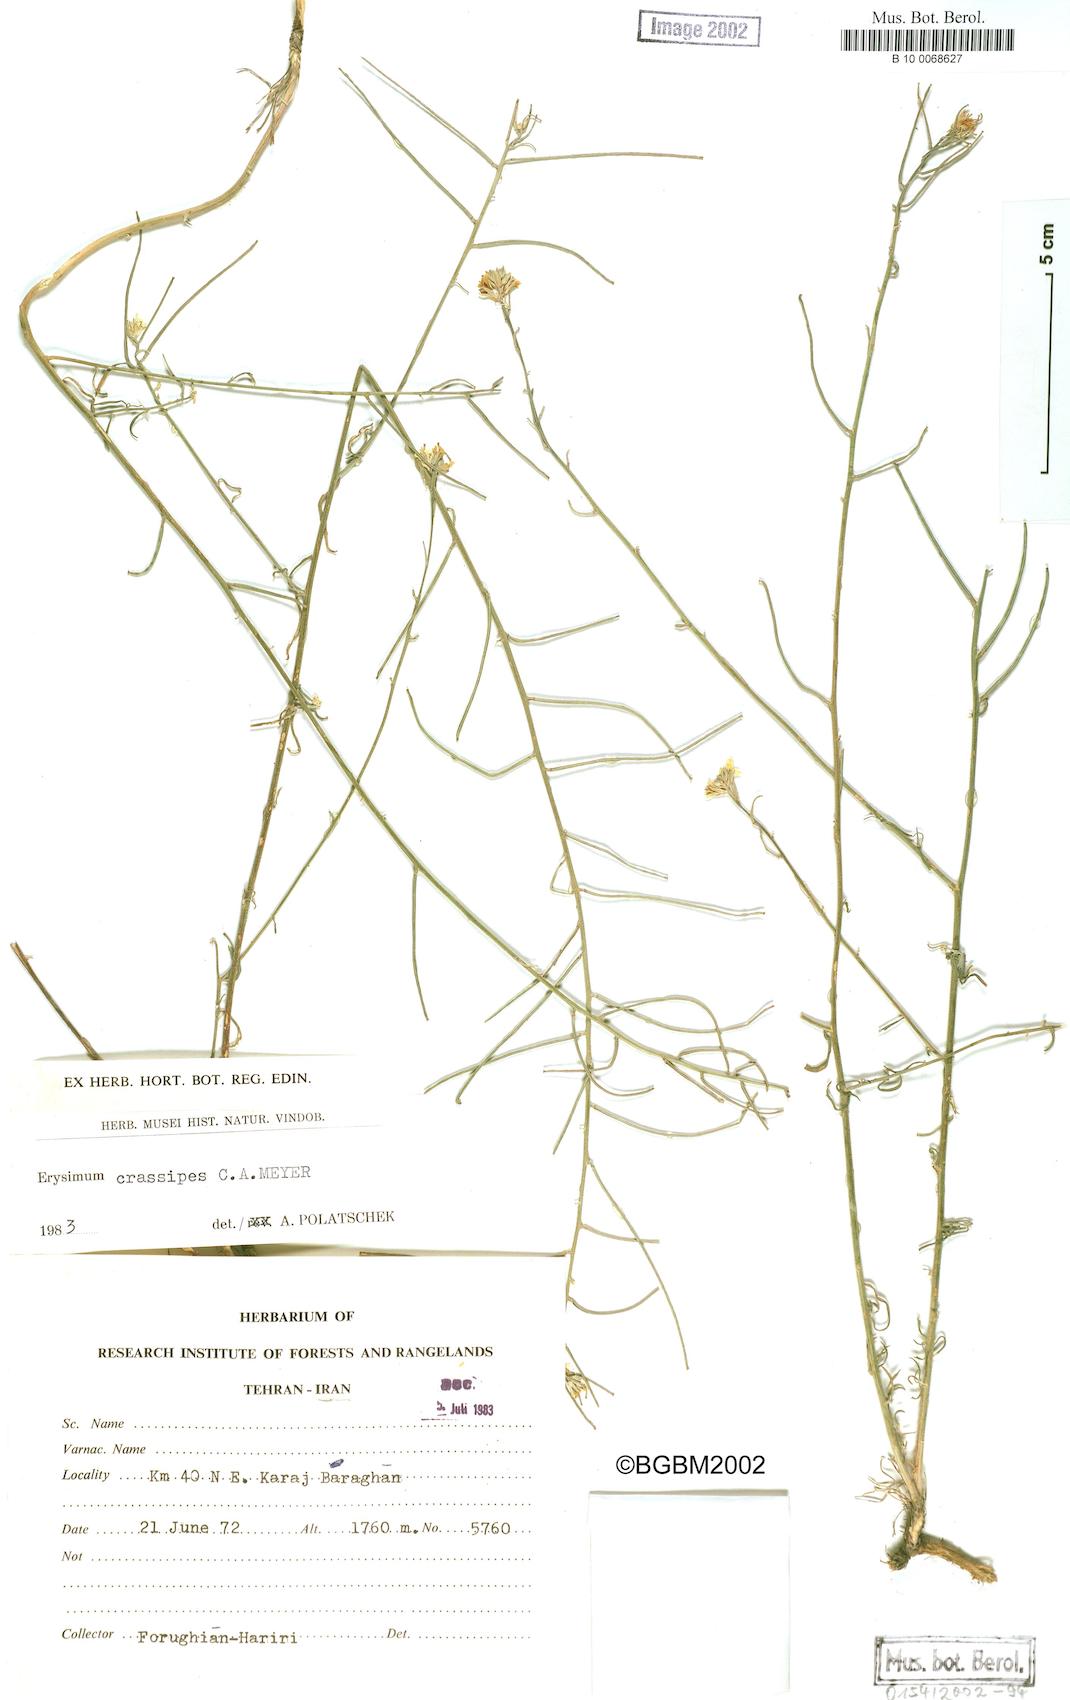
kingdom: Plantae
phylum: Tracheophyta
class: Magnoliopsida
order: Brassicales
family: Brassicaceae
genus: Erysimum
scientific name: Erysimum crassipes
